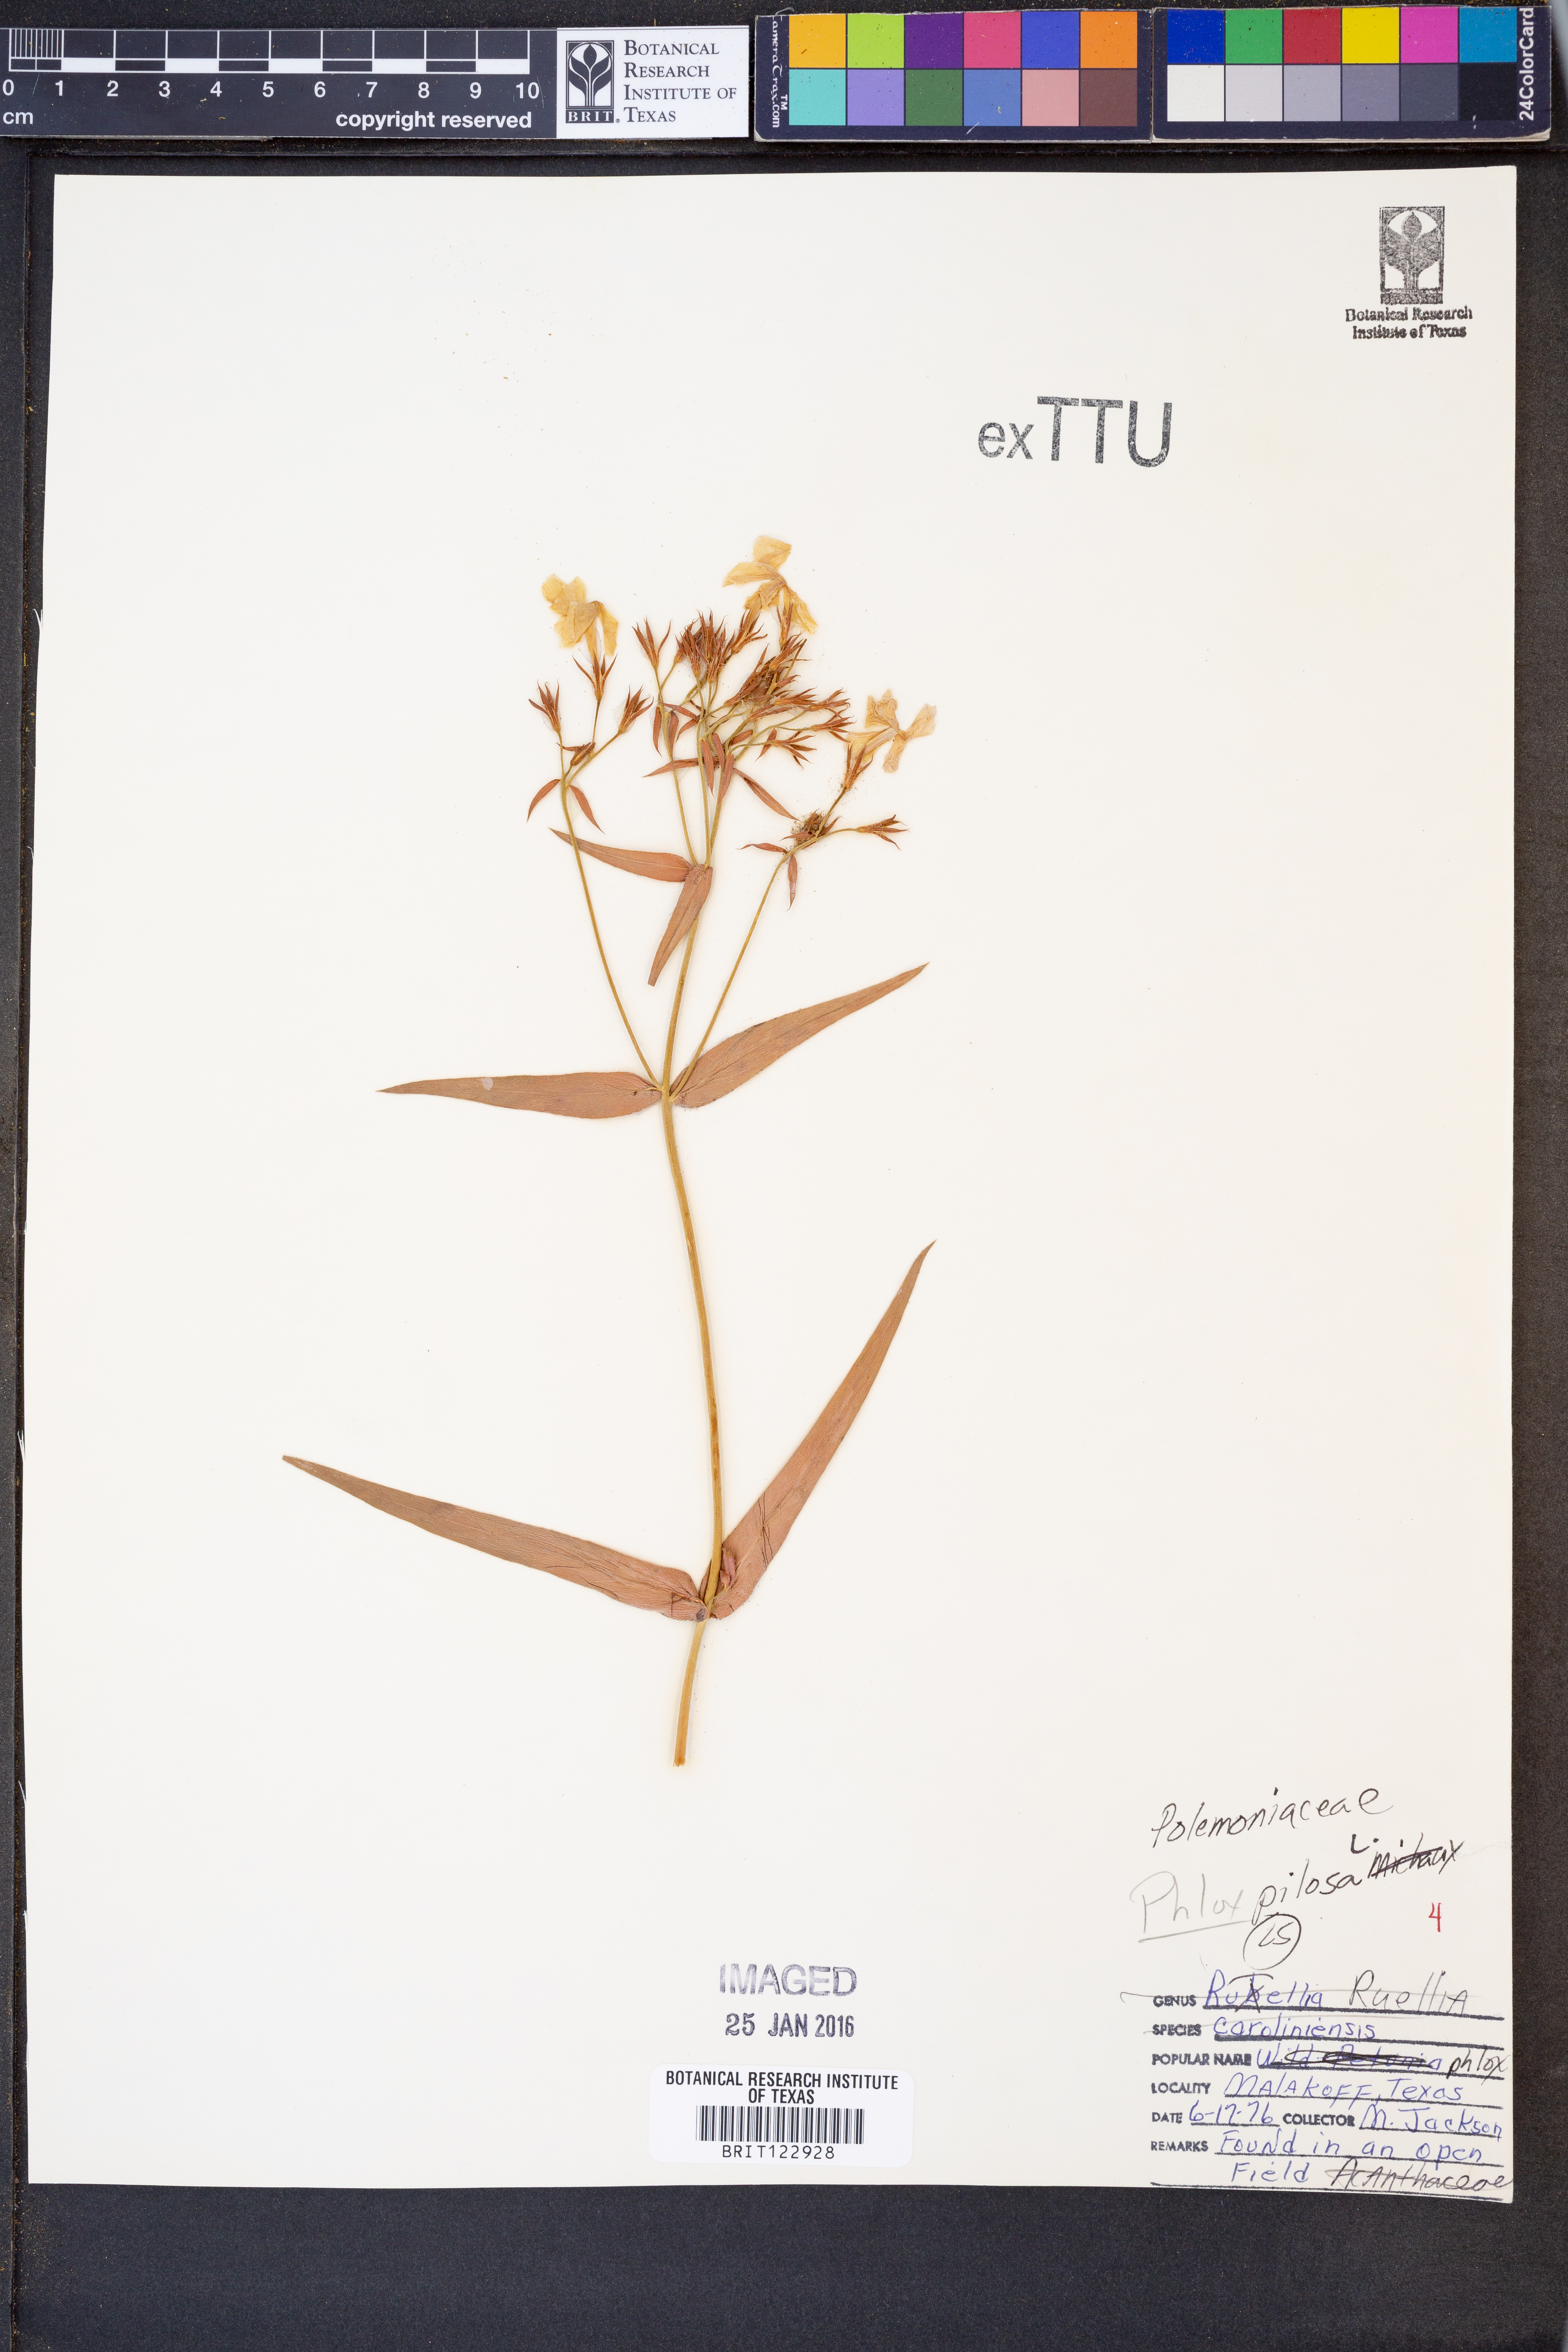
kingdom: Plantae
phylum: Tracheophyta
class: Magnoliopsida
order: Ericales
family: Polemoniaceae
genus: Phlox
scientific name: Phlox pilosa
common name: Prairie phlox
